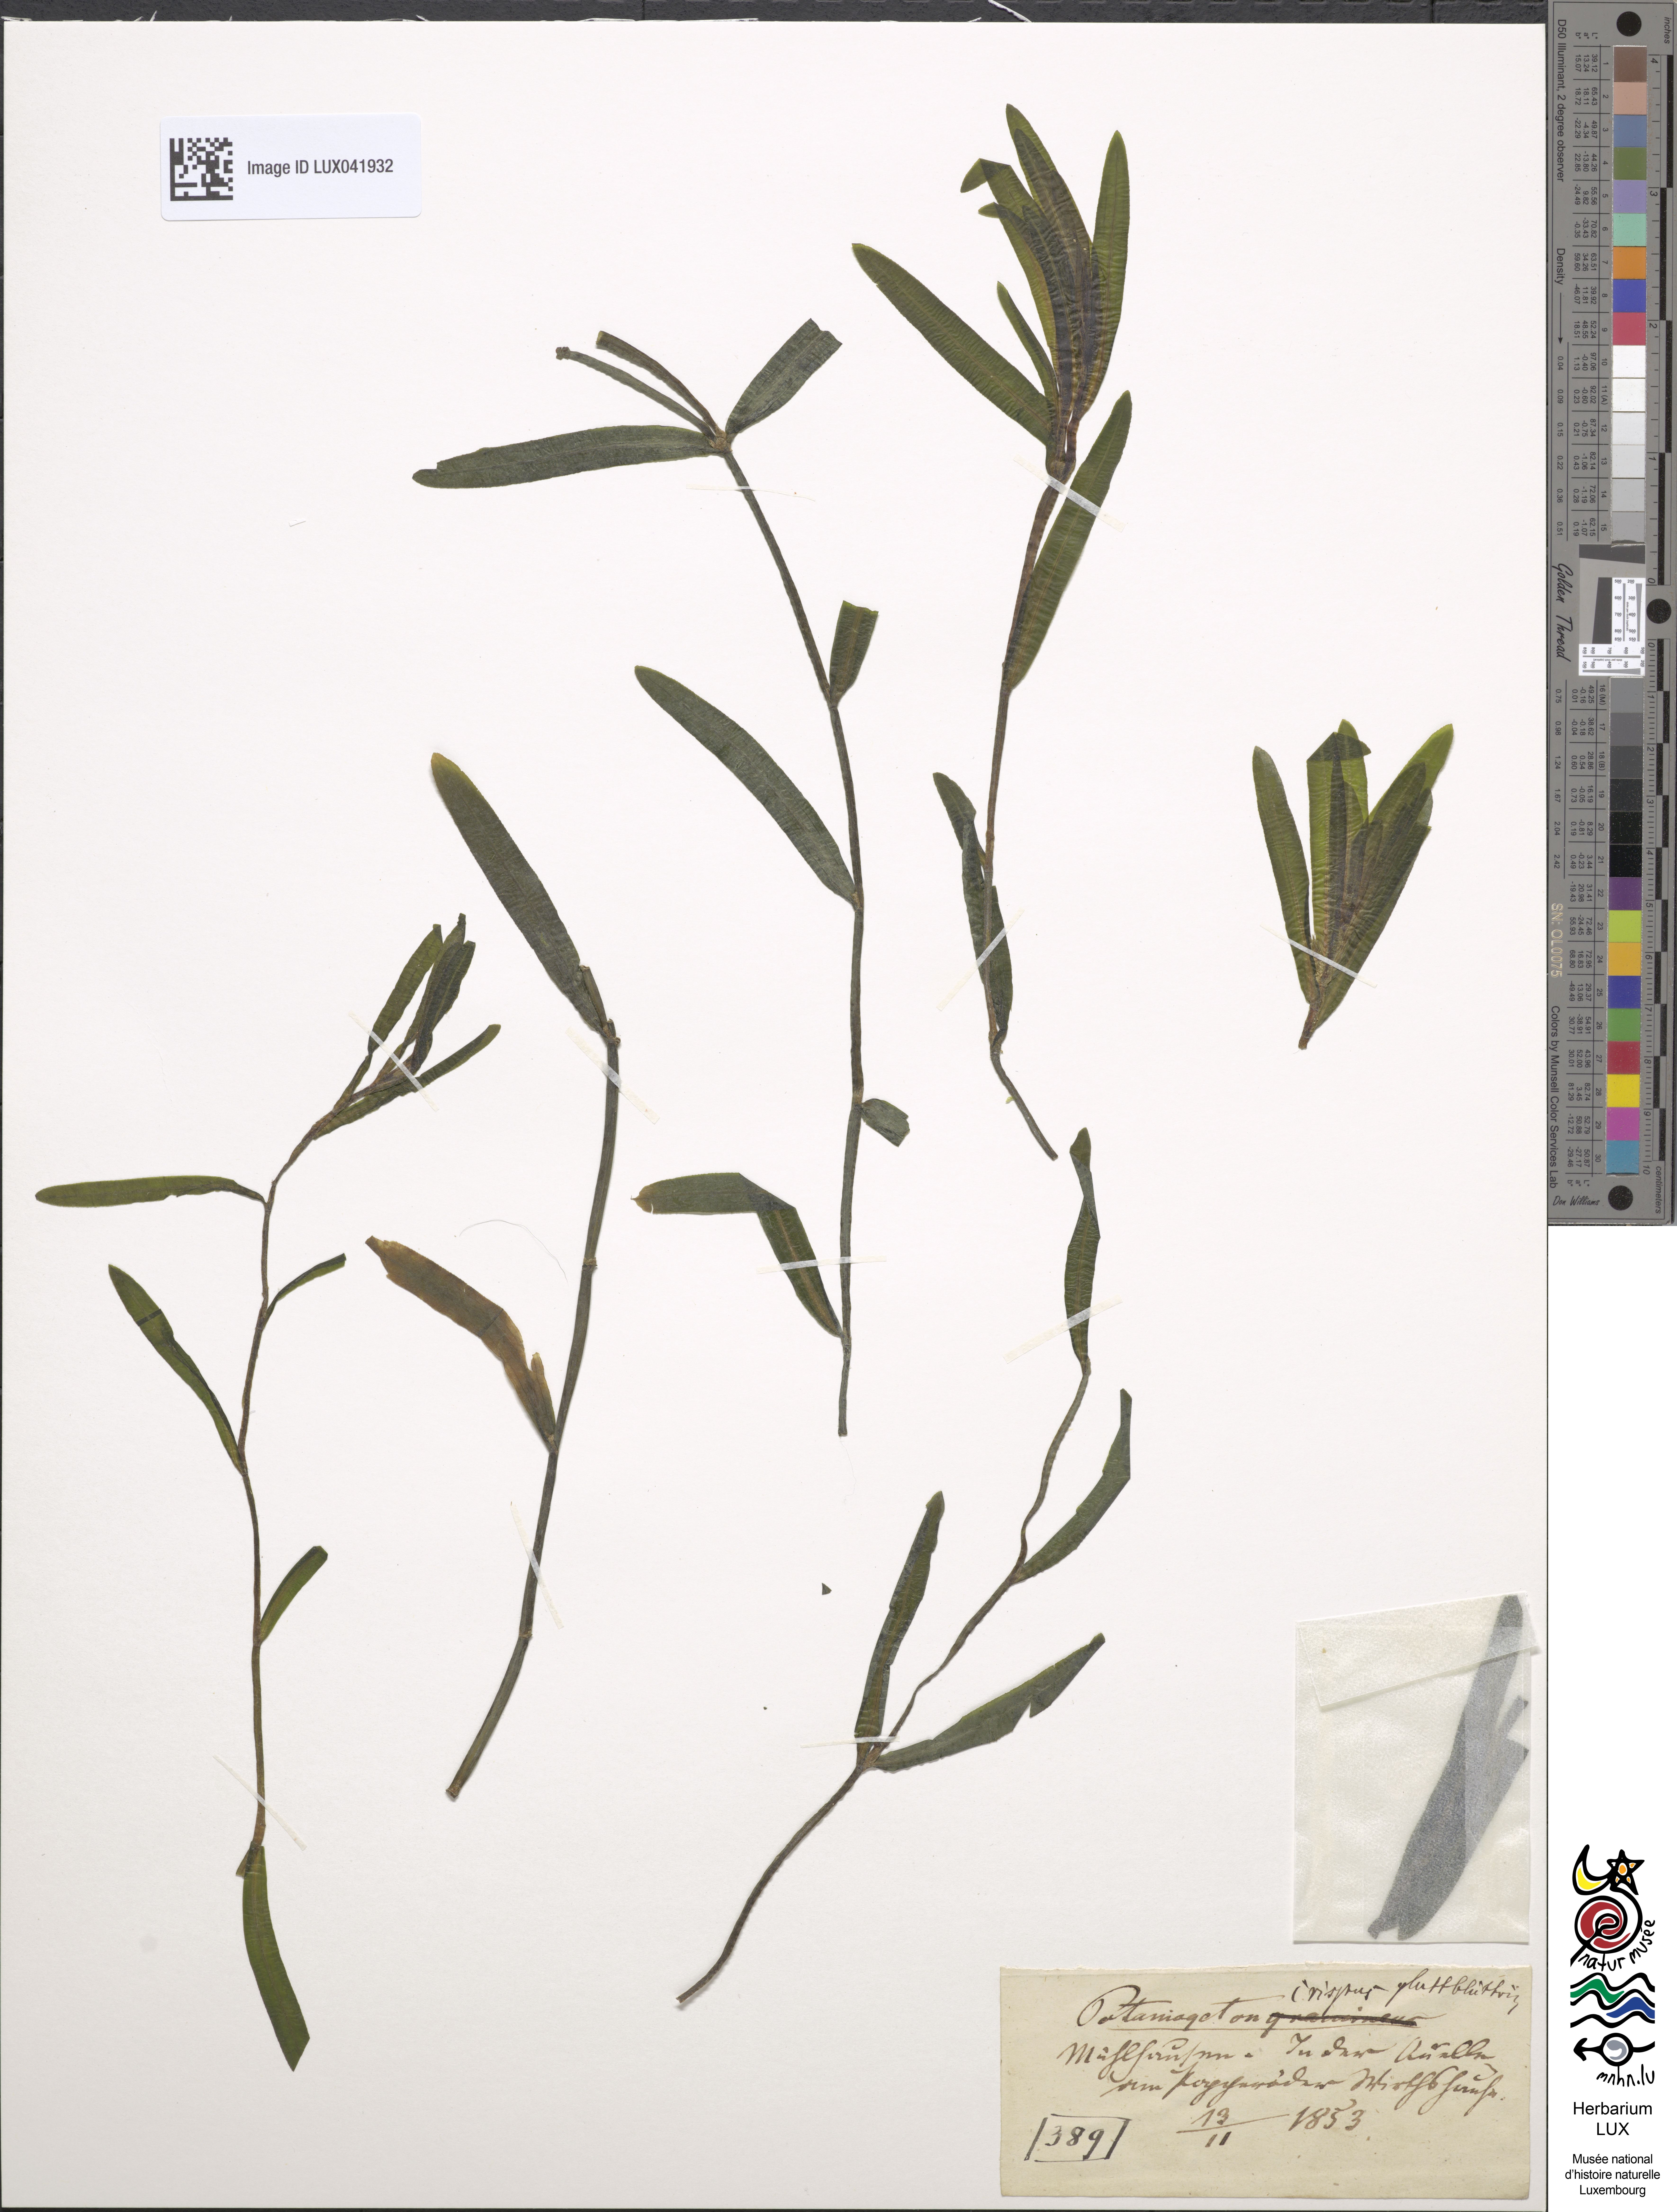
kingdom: Plantae
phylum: Tracheophyta
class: Liliopsida
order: Alismatales
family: Potamogetonaceae
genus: Potamogeton
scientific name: Potamogeton crispus
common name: Curled pondweed
